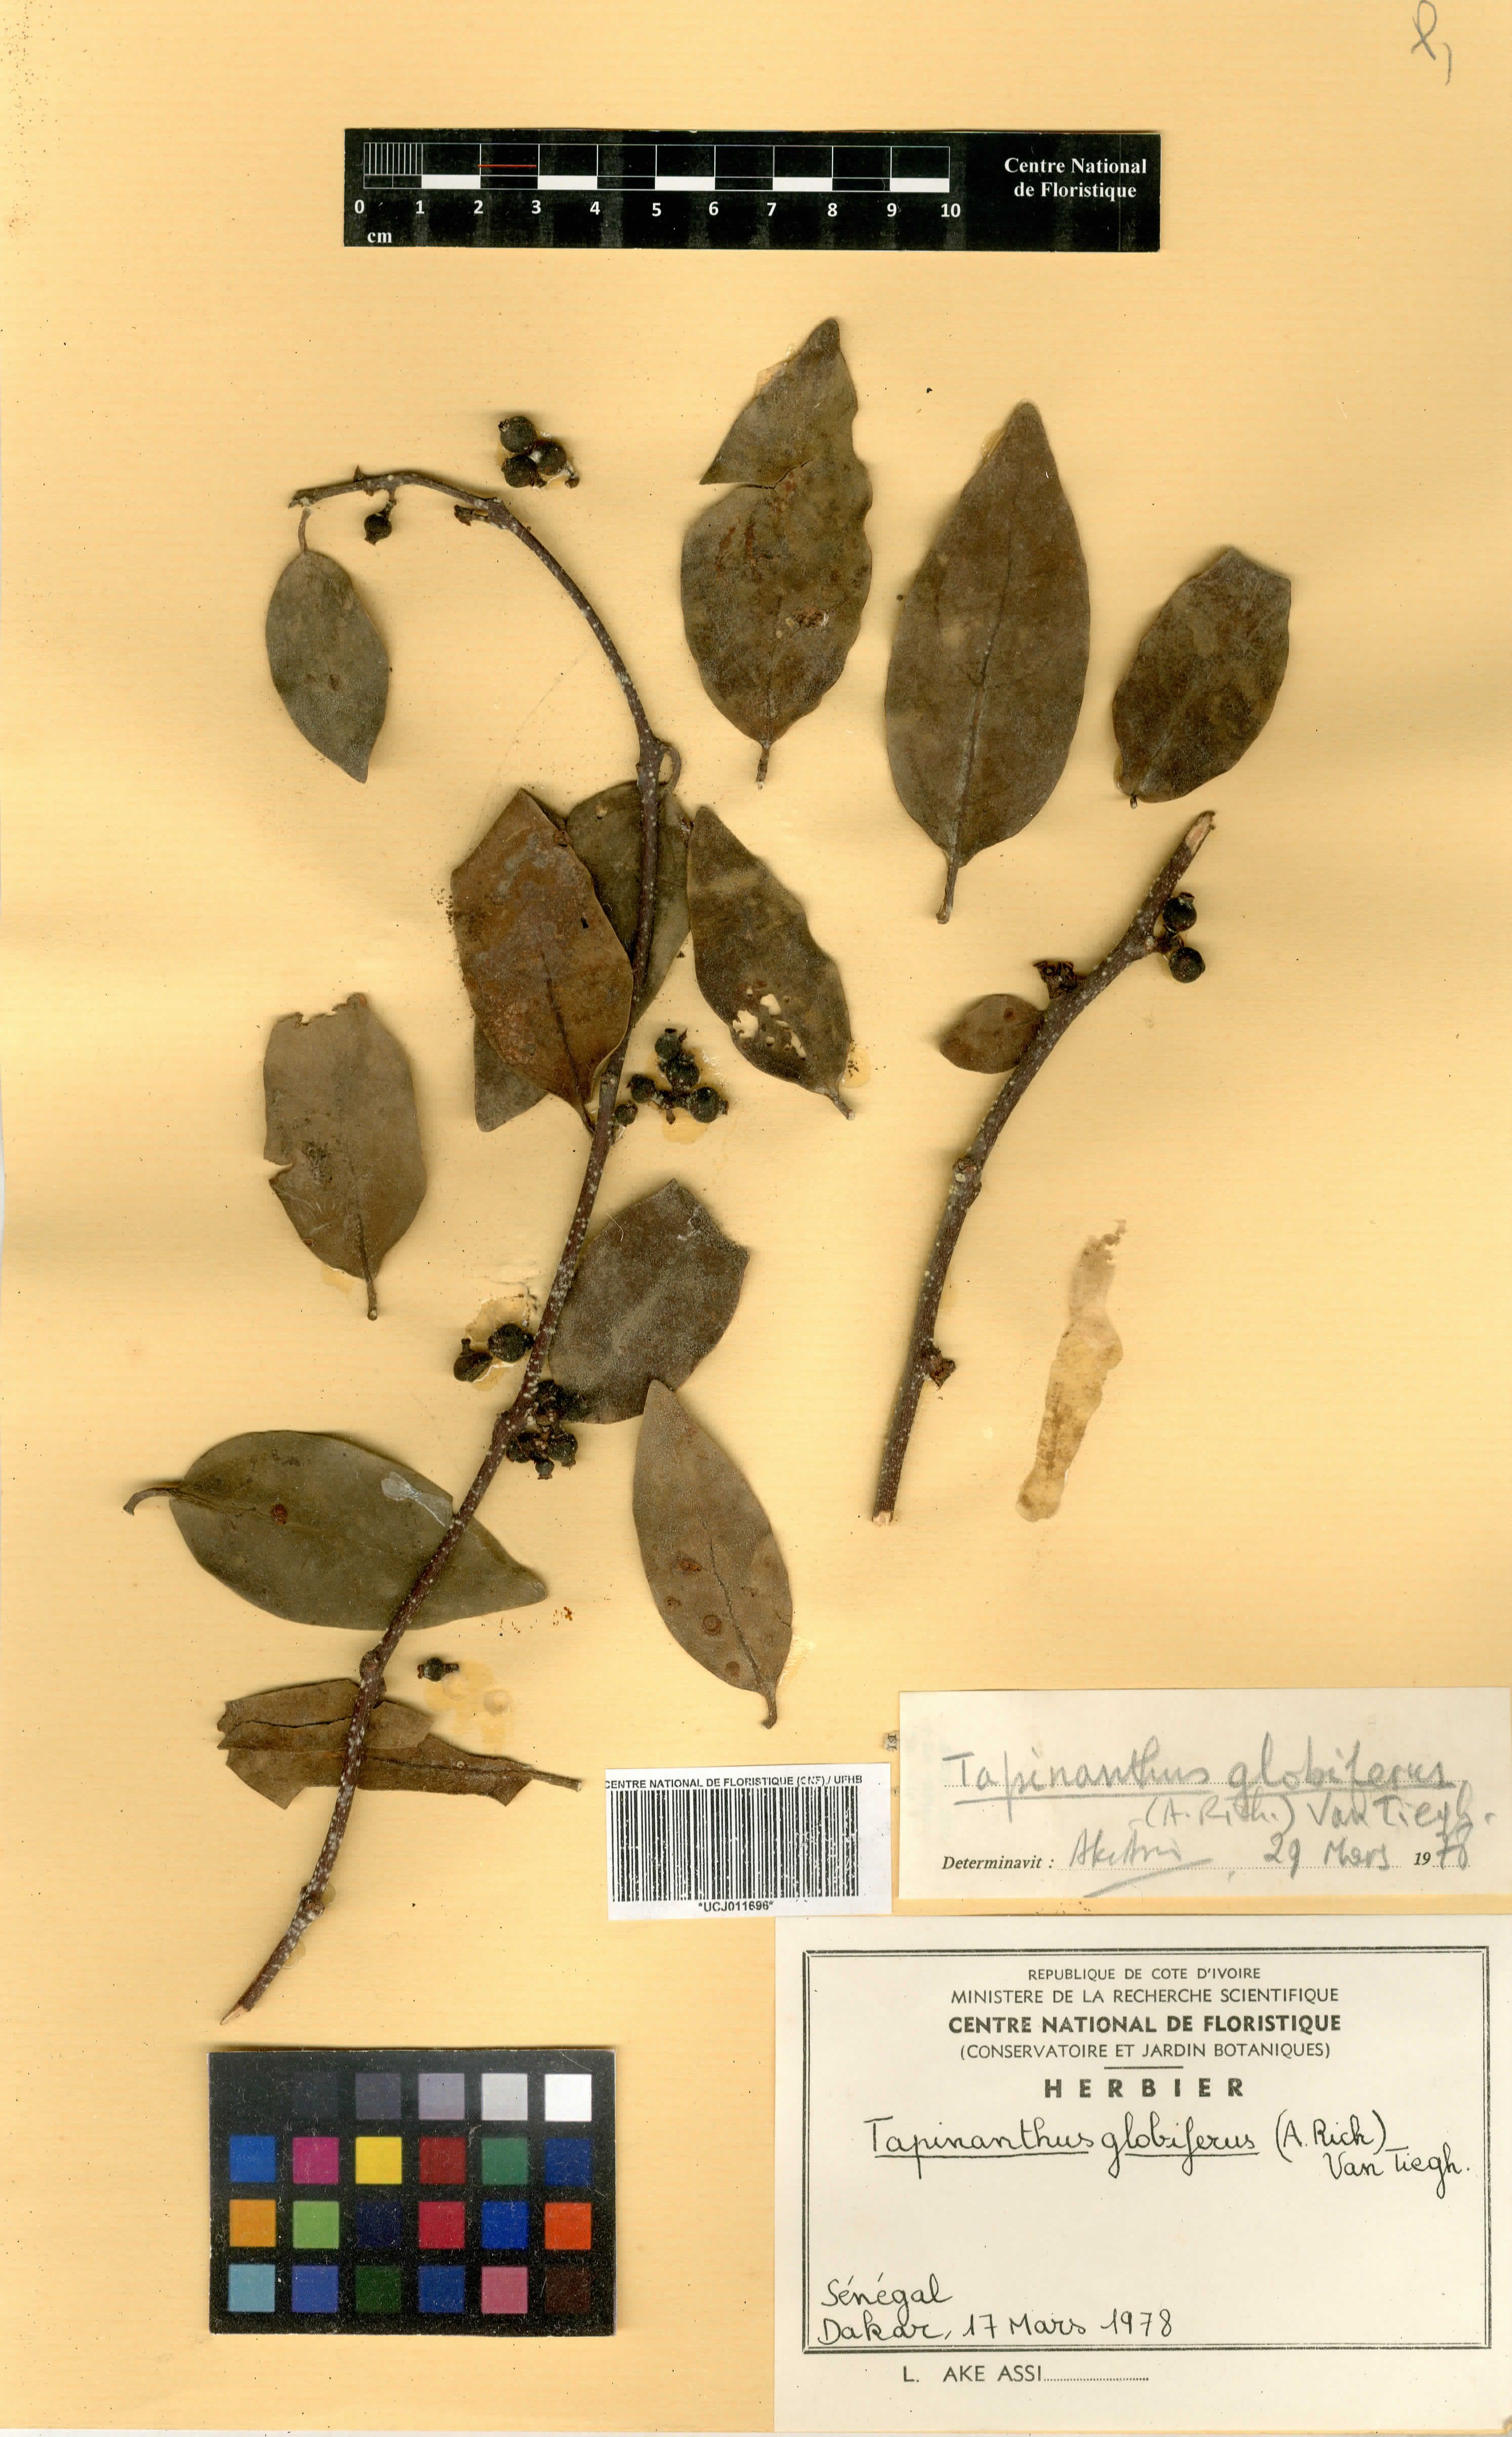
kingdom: Plantae
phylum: Tracheophyta
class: Magnoliopsida
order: Santalales
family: Loranthaceae
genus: Tapinanthus
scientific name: Tapinanthus globiferus
